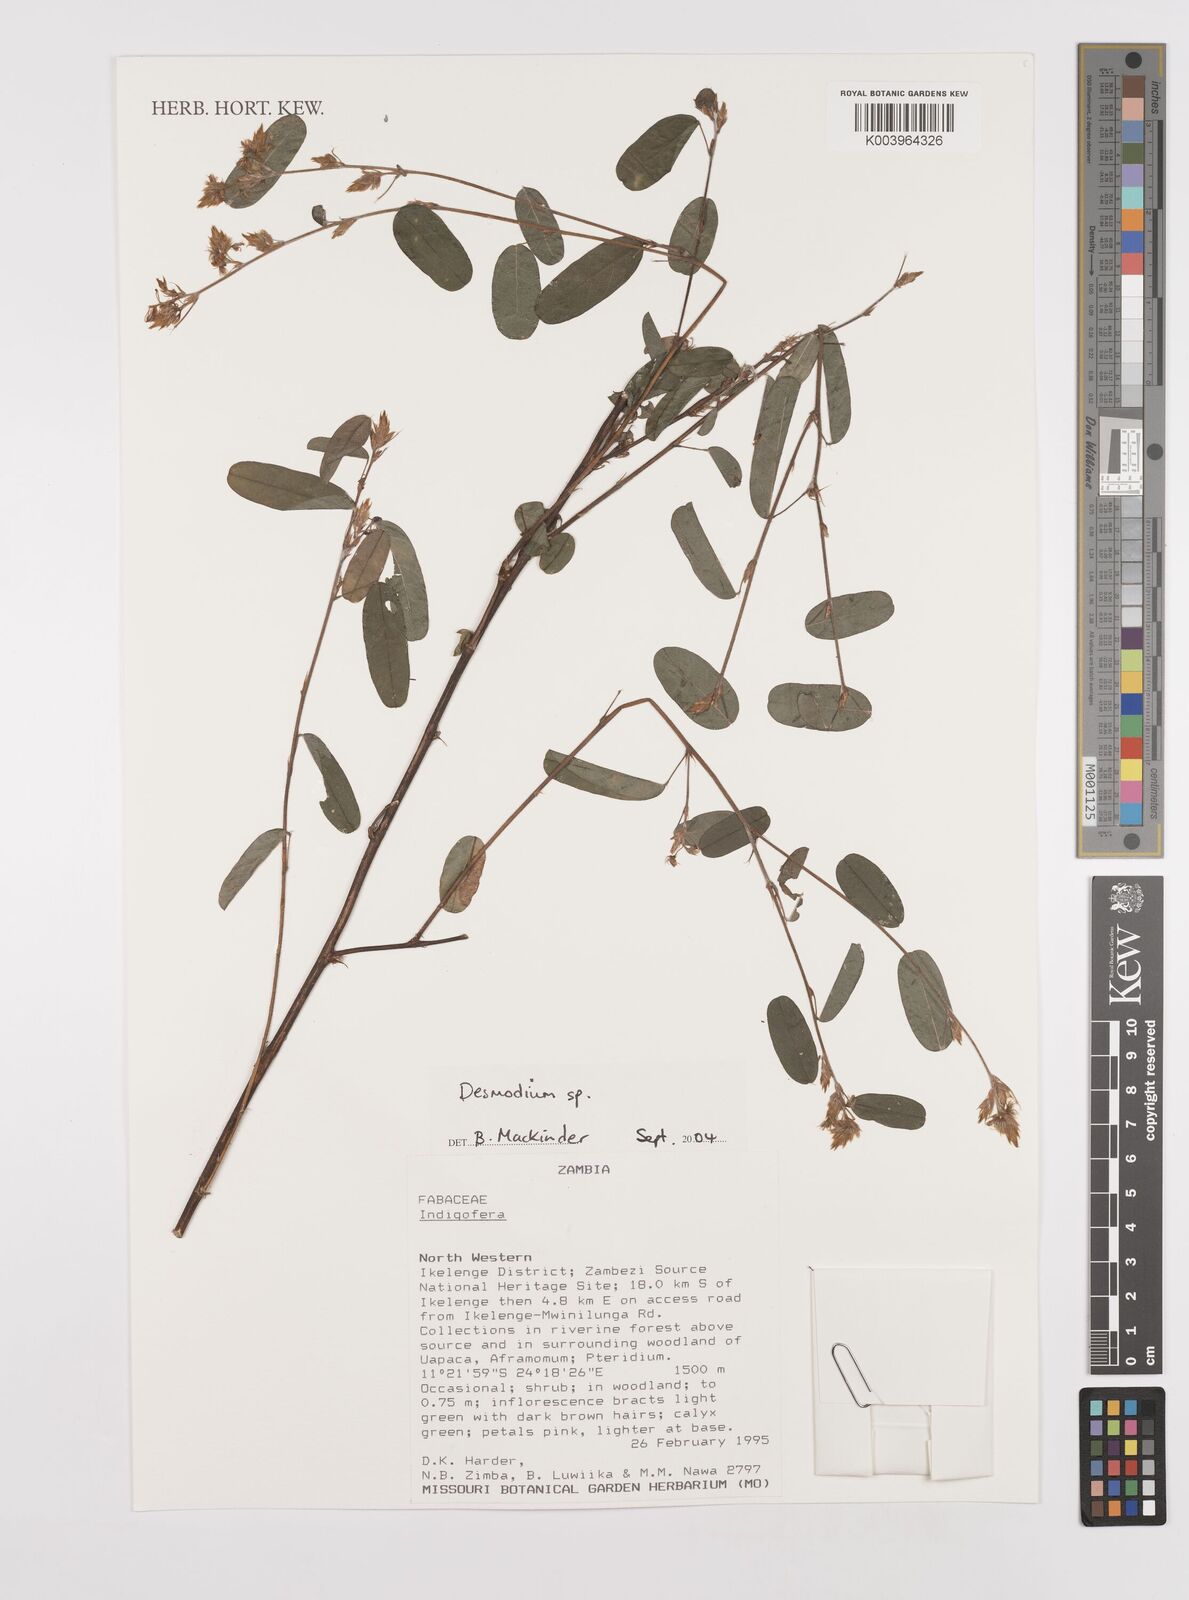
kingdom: Plantae
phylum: Tracheophyta
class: Magnoliopsida
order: Fabales
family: Fabaceae
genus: Desmodium
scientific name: Desmodium
